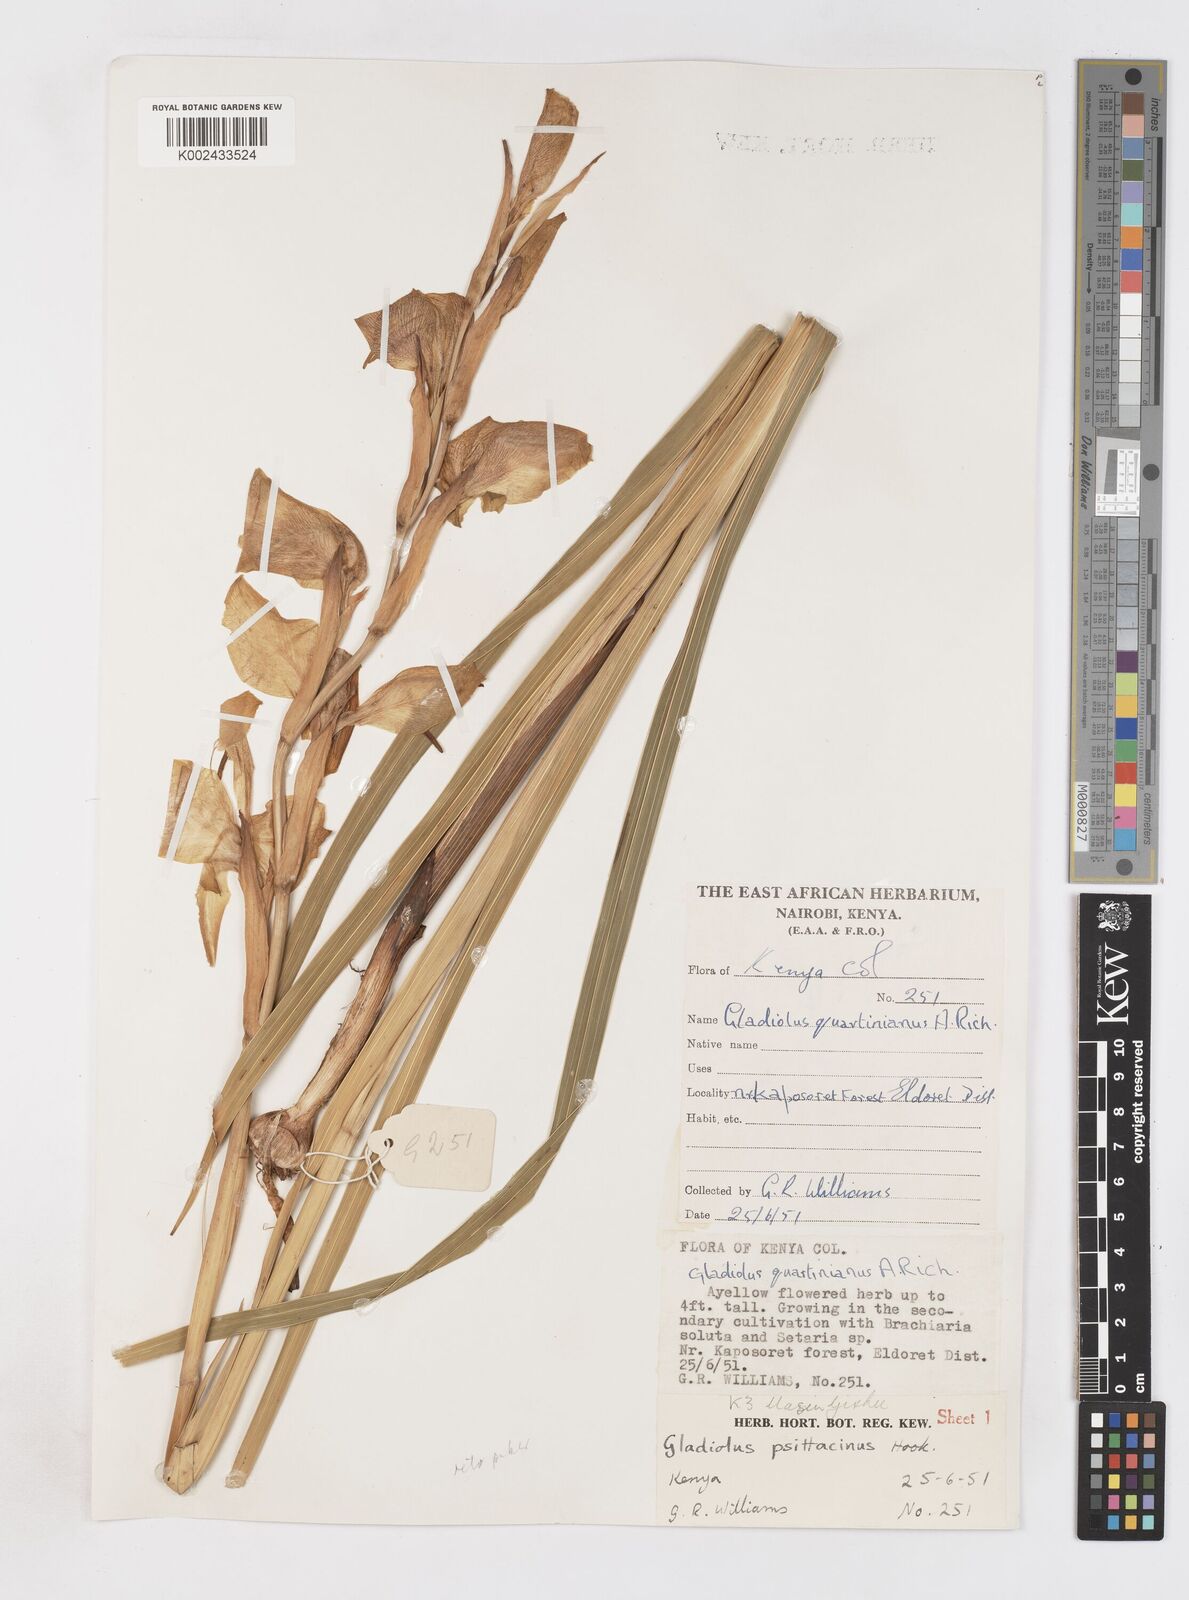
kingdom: Plantae
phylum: Tracheophyta
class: Liliopsida
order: Asparagales
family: Iridaceae
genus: Gladiolus
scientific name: Gladiolus dalenii
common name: Cornflag
